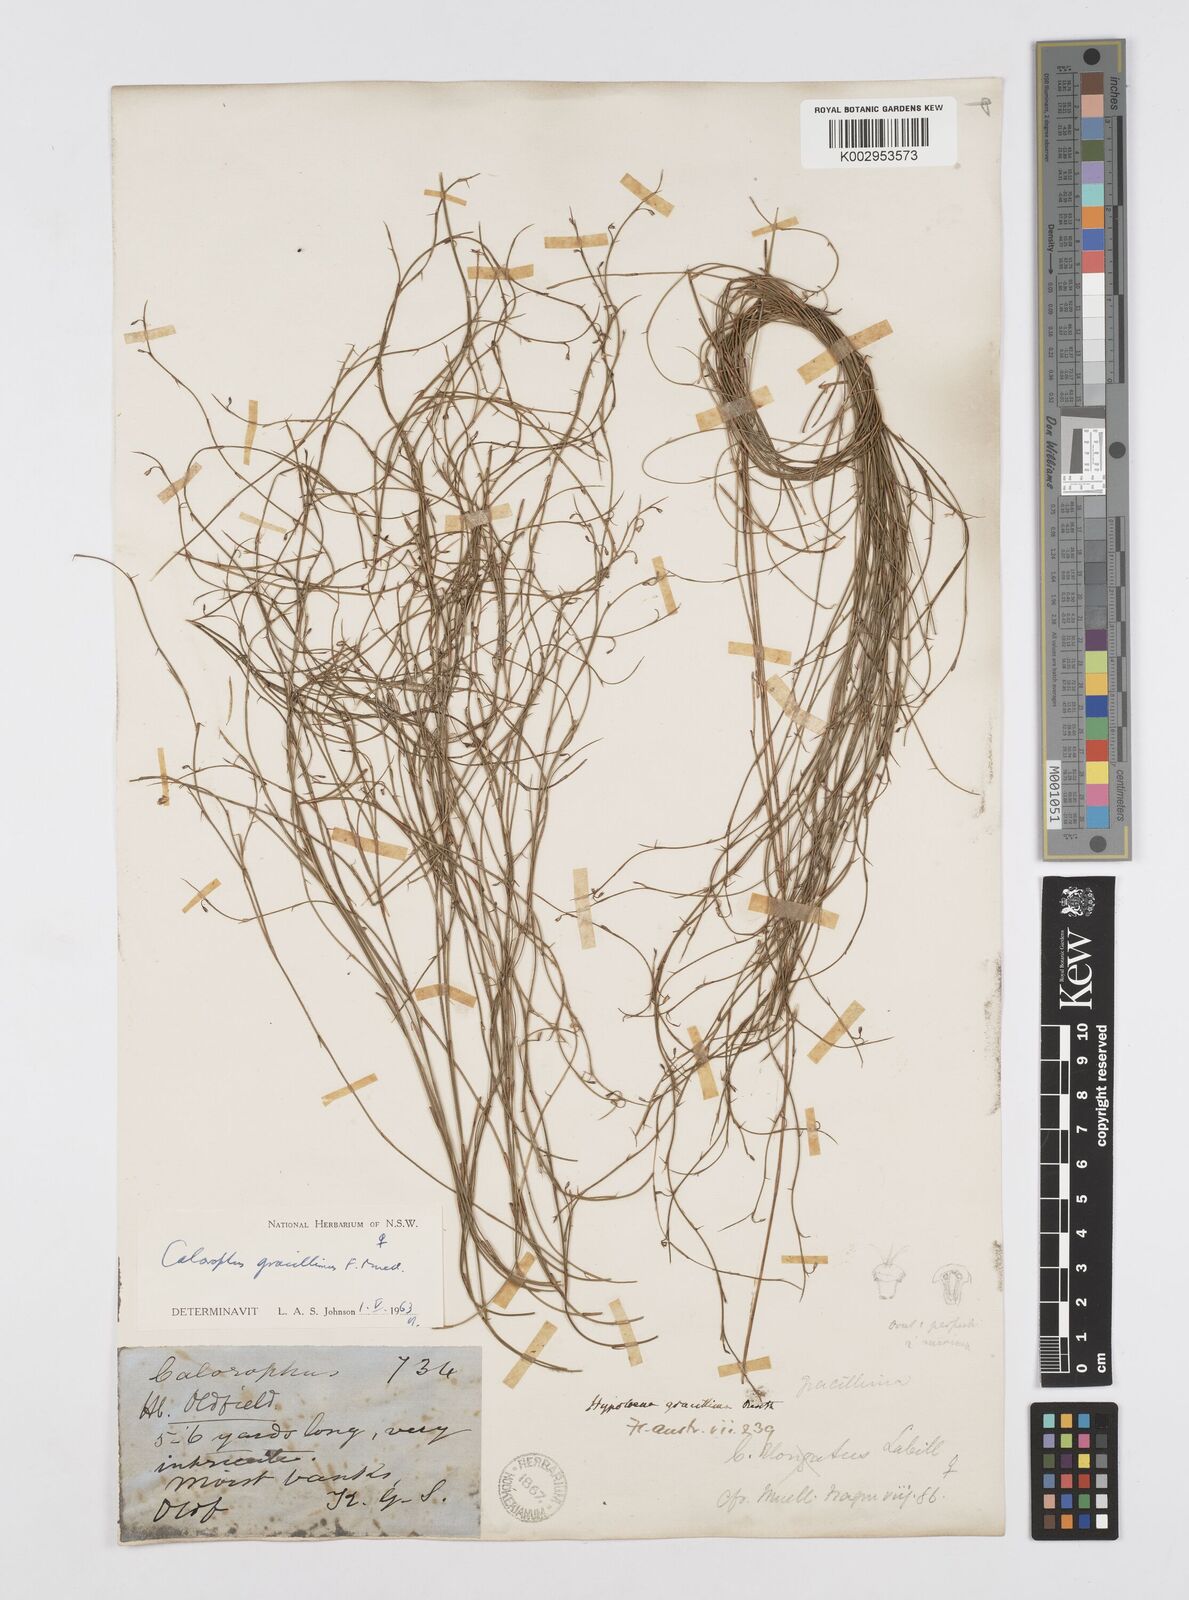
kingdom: Plantae
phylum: Tracheophyta
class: Liliopsida
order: Poales
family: Restionaceae
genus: Empodisma
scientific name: Empodisma gracillimum
